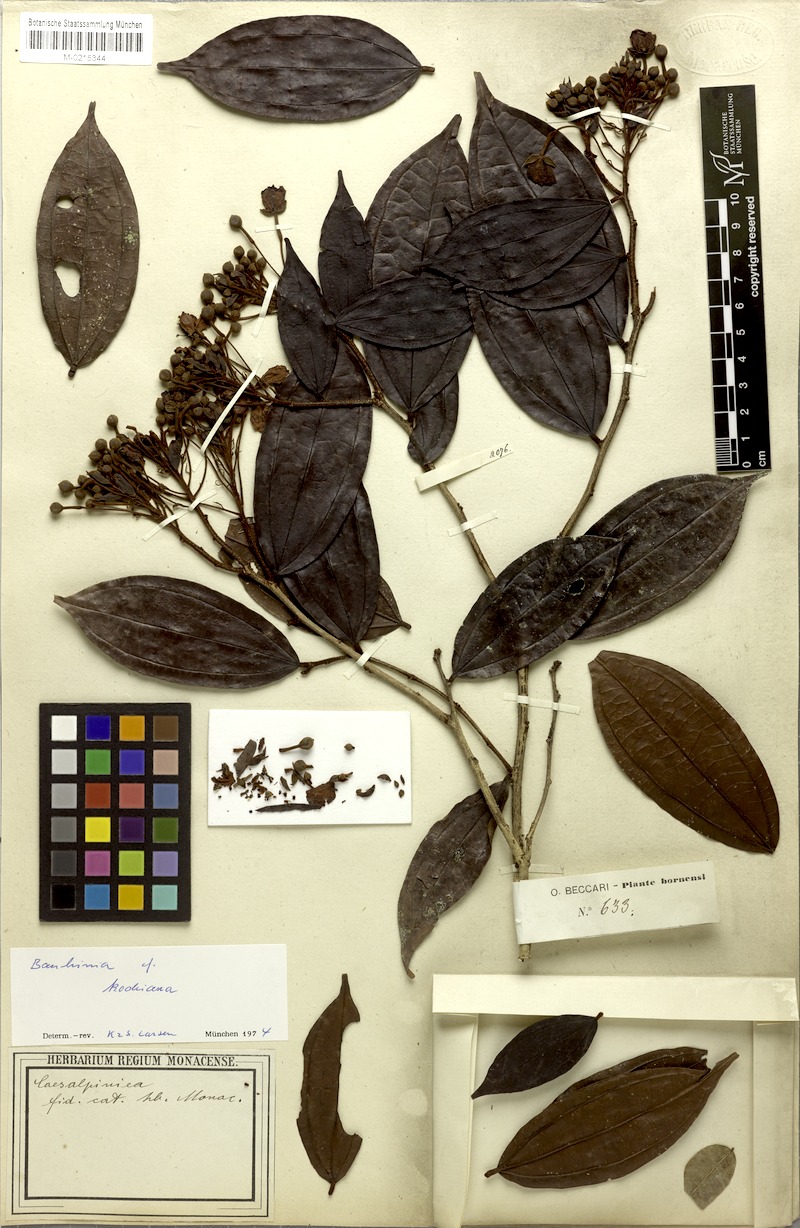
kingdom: Plantae
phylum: Tracheophyta
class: Magnoliopsida
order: Fabales
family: Fabaceae
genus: Phanera
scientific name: Phanera burbidgei
